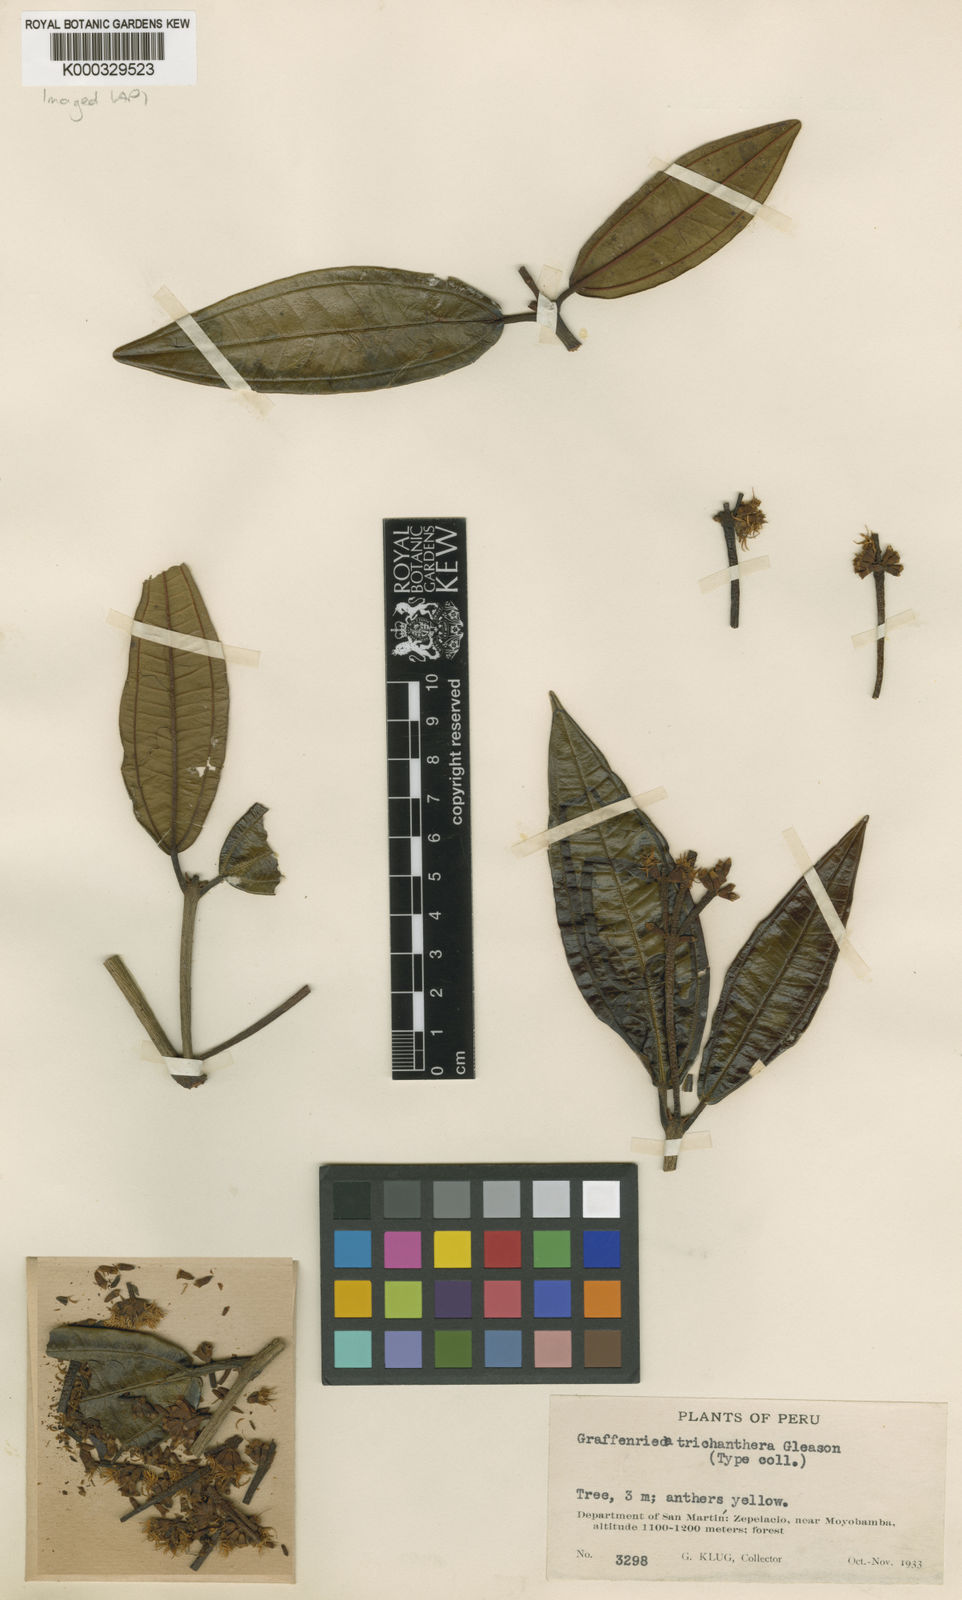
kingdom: Plantae
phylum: Tracheophyta
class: Magnoliopsida
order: Myrtales
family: Melastomataceae
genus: Graffenrieda
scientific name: Graffenrieda trichanthera
